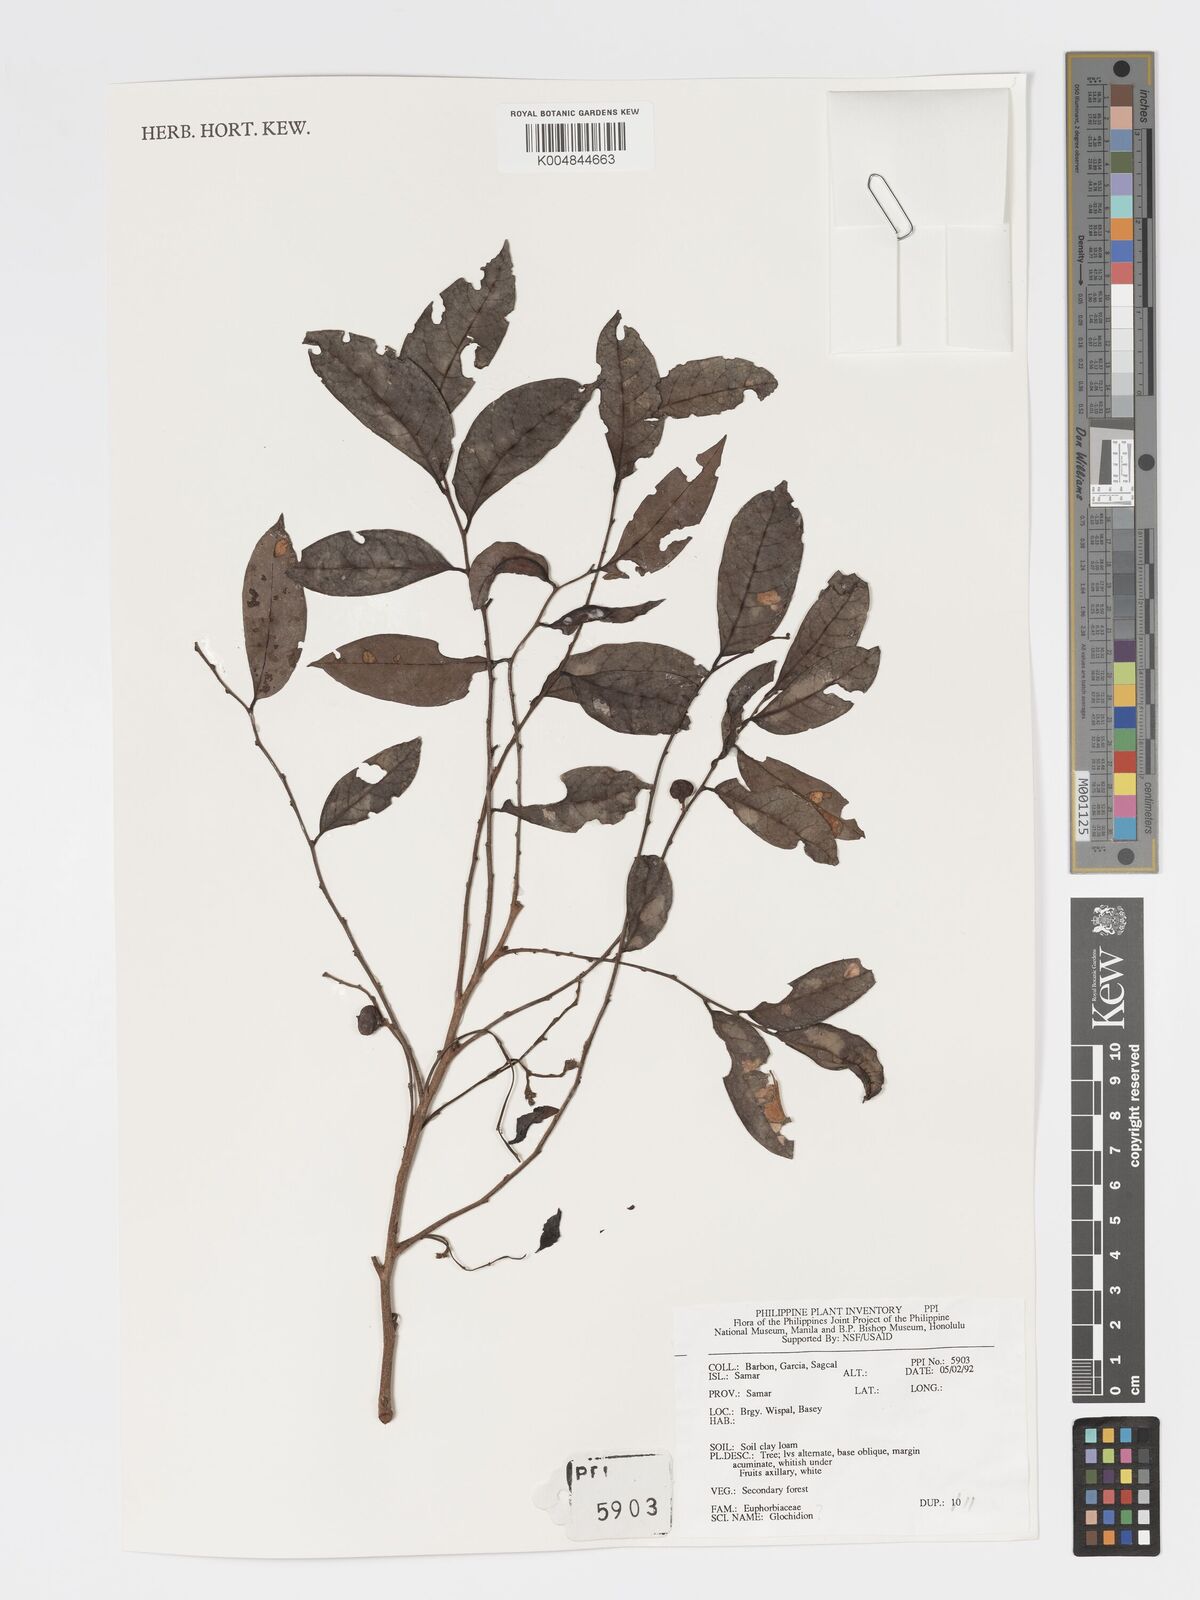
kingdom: Plantae
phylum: Tracheophyta
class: Magnoliopsida
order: Malpighiales
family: Phyllanthaceae
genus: Glochidion
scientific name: Glochidion
